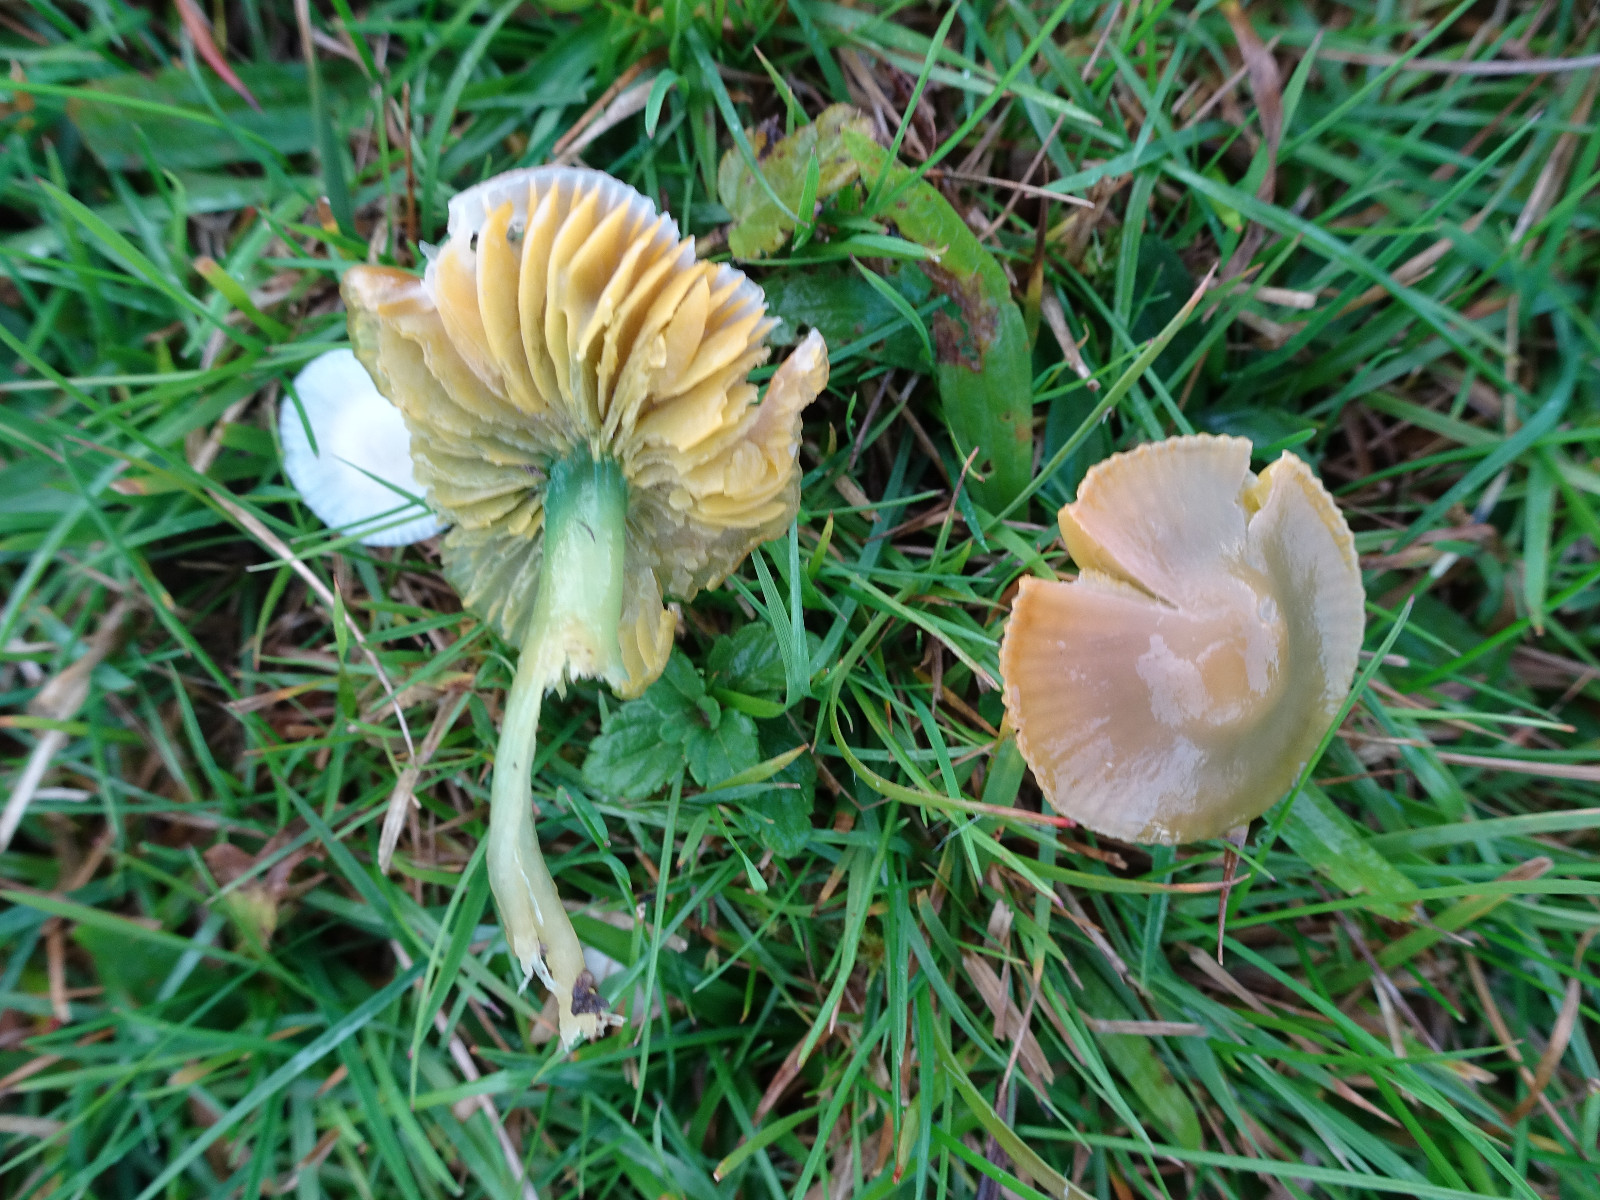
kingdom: Fungi
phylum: Basidiomycota
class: Agaricomycetes
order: Agaricales
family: Hygrophoraceae
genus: Gliophorus
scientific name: Gliophorus psittacinus
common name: papegøje-vokshat
